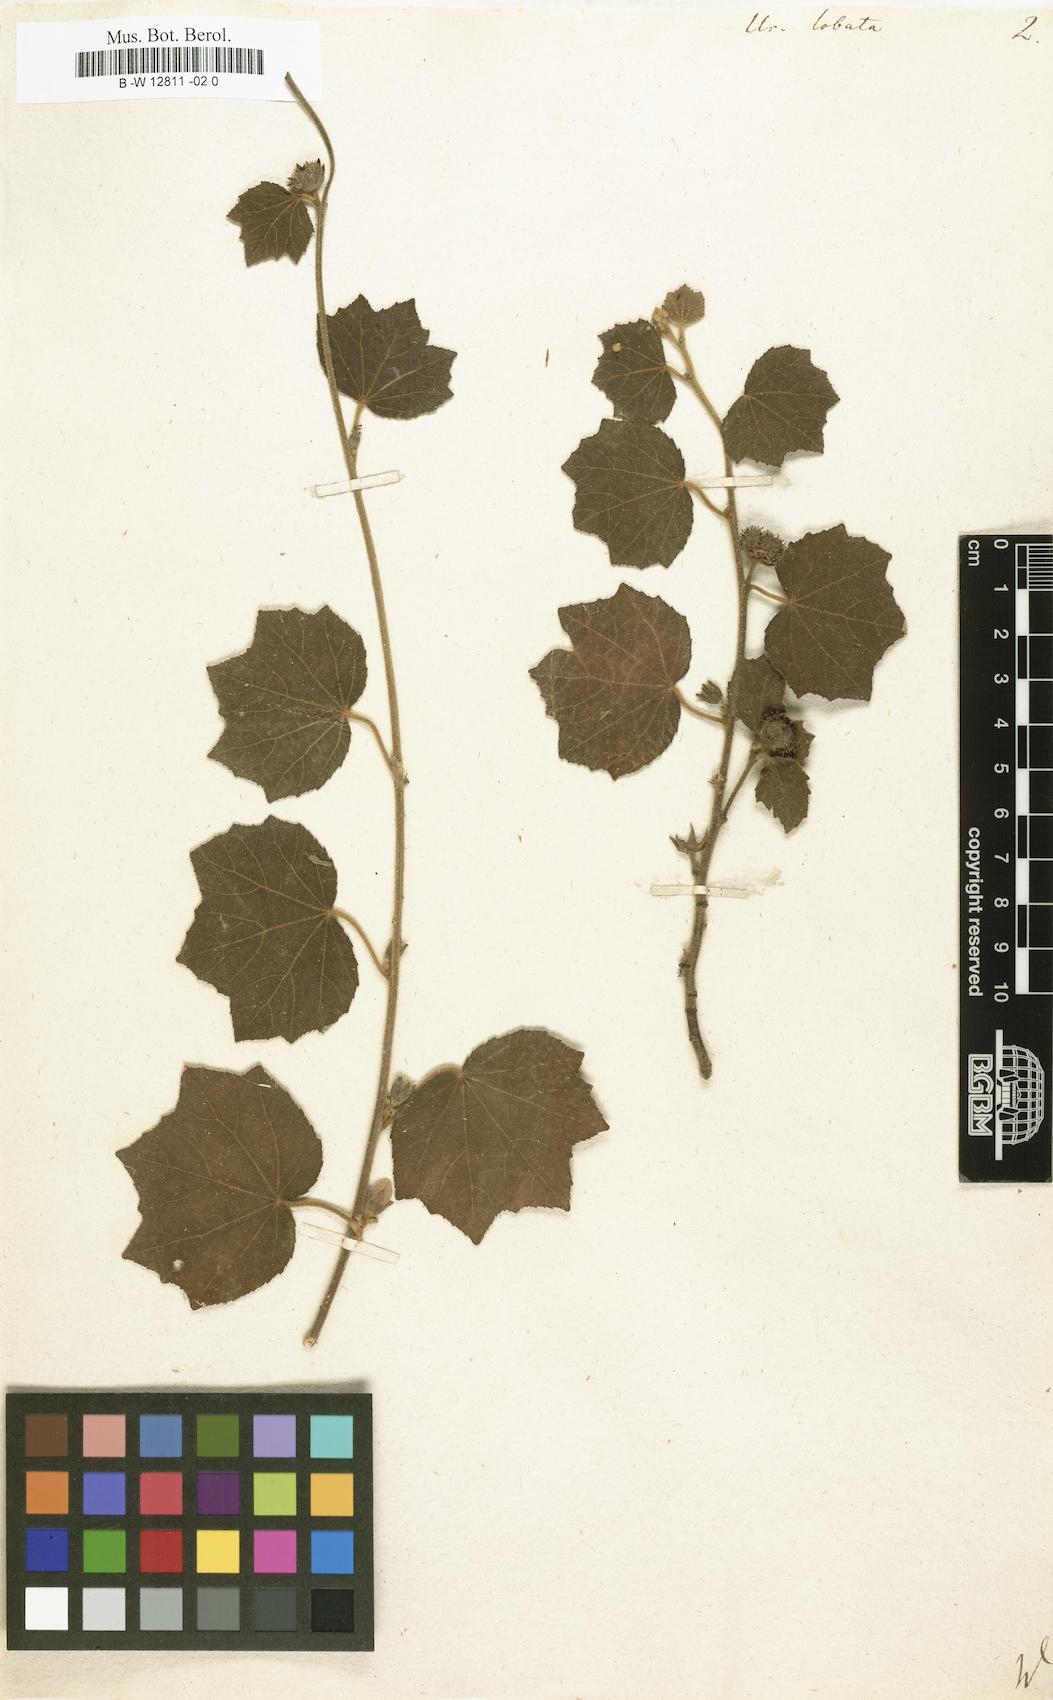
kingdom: Plantae
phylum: Tracheophyta
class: Magnoliopsida
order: Malvales
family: Malvaceae
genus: Urena
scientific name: Urena lobata
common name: Caesarweed
